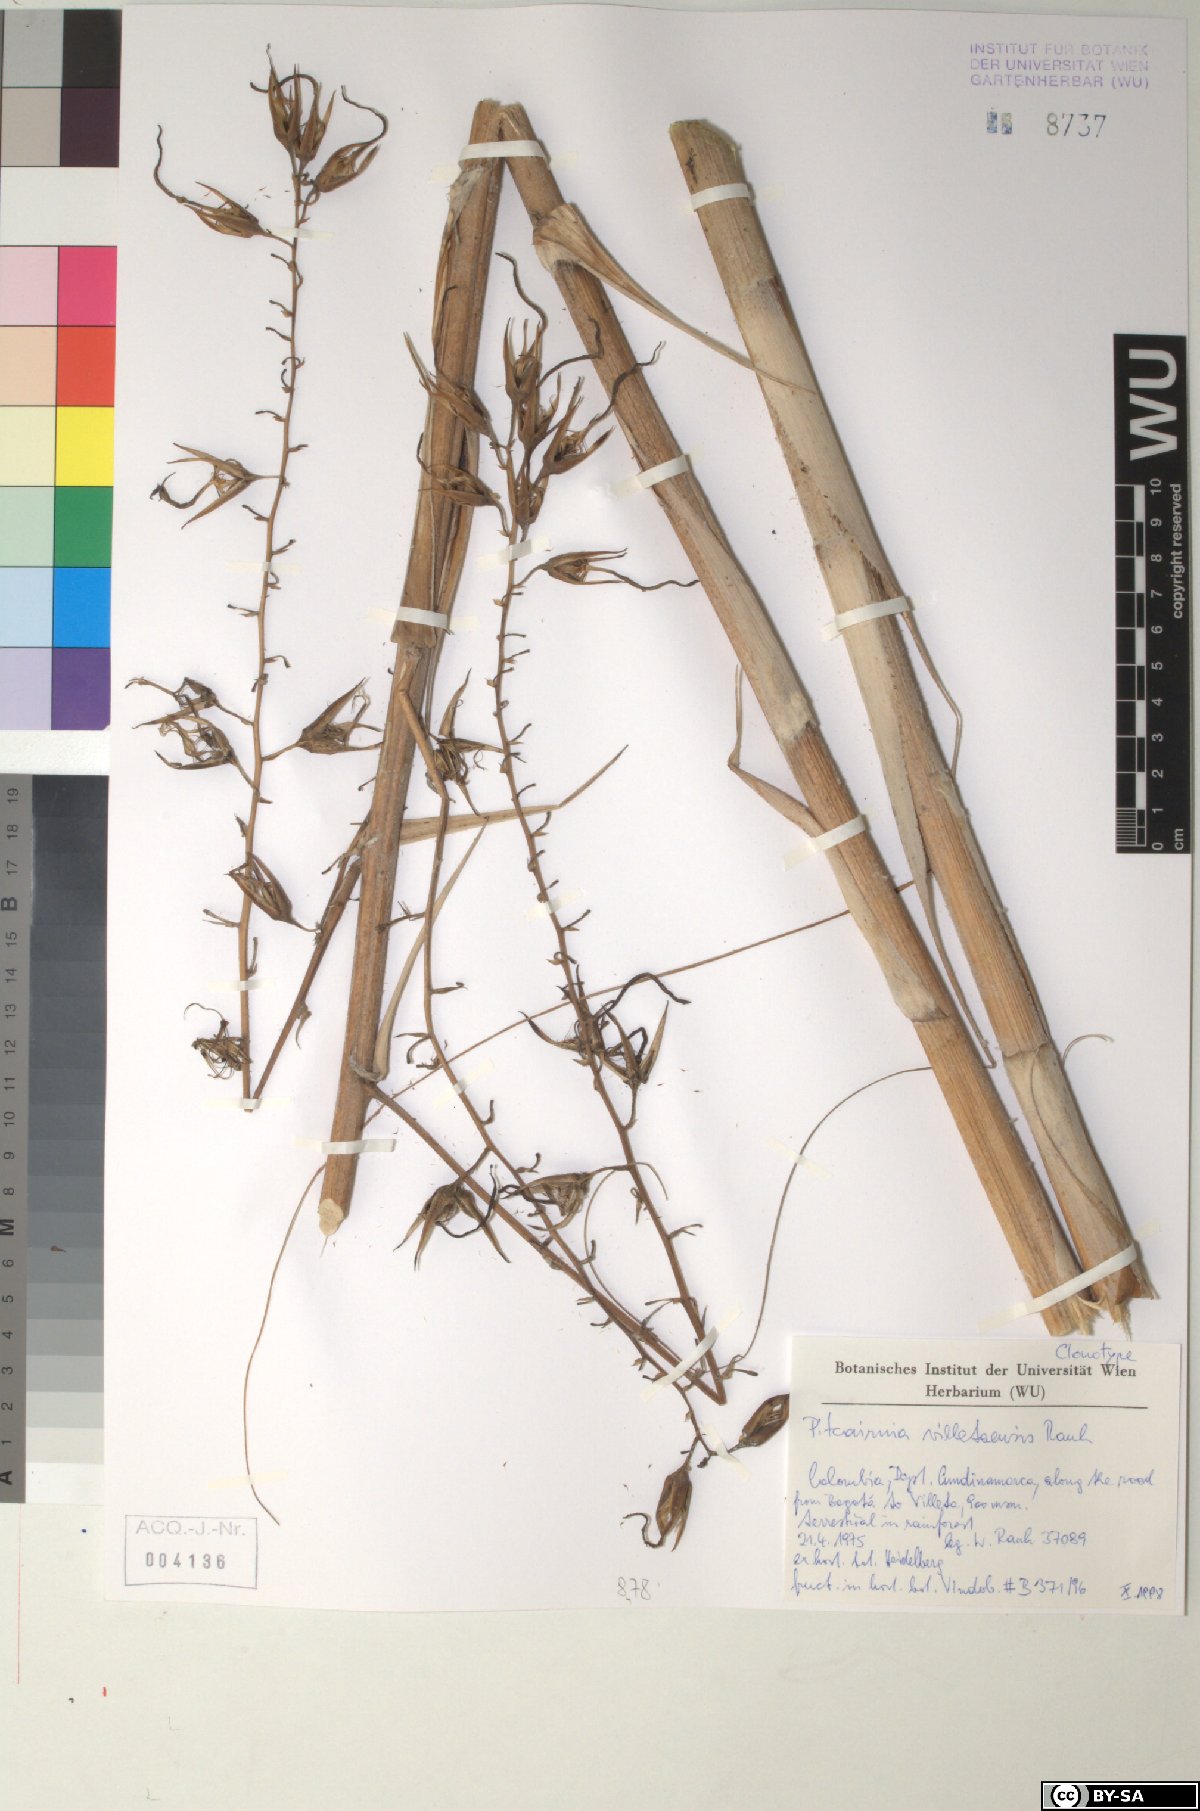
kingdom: Plantae
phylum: Tracheophyta
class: Liliopsida
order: Poales
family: Bromeliaceae
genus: Pitcairnia
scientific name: Pitcairnia villetaensis
